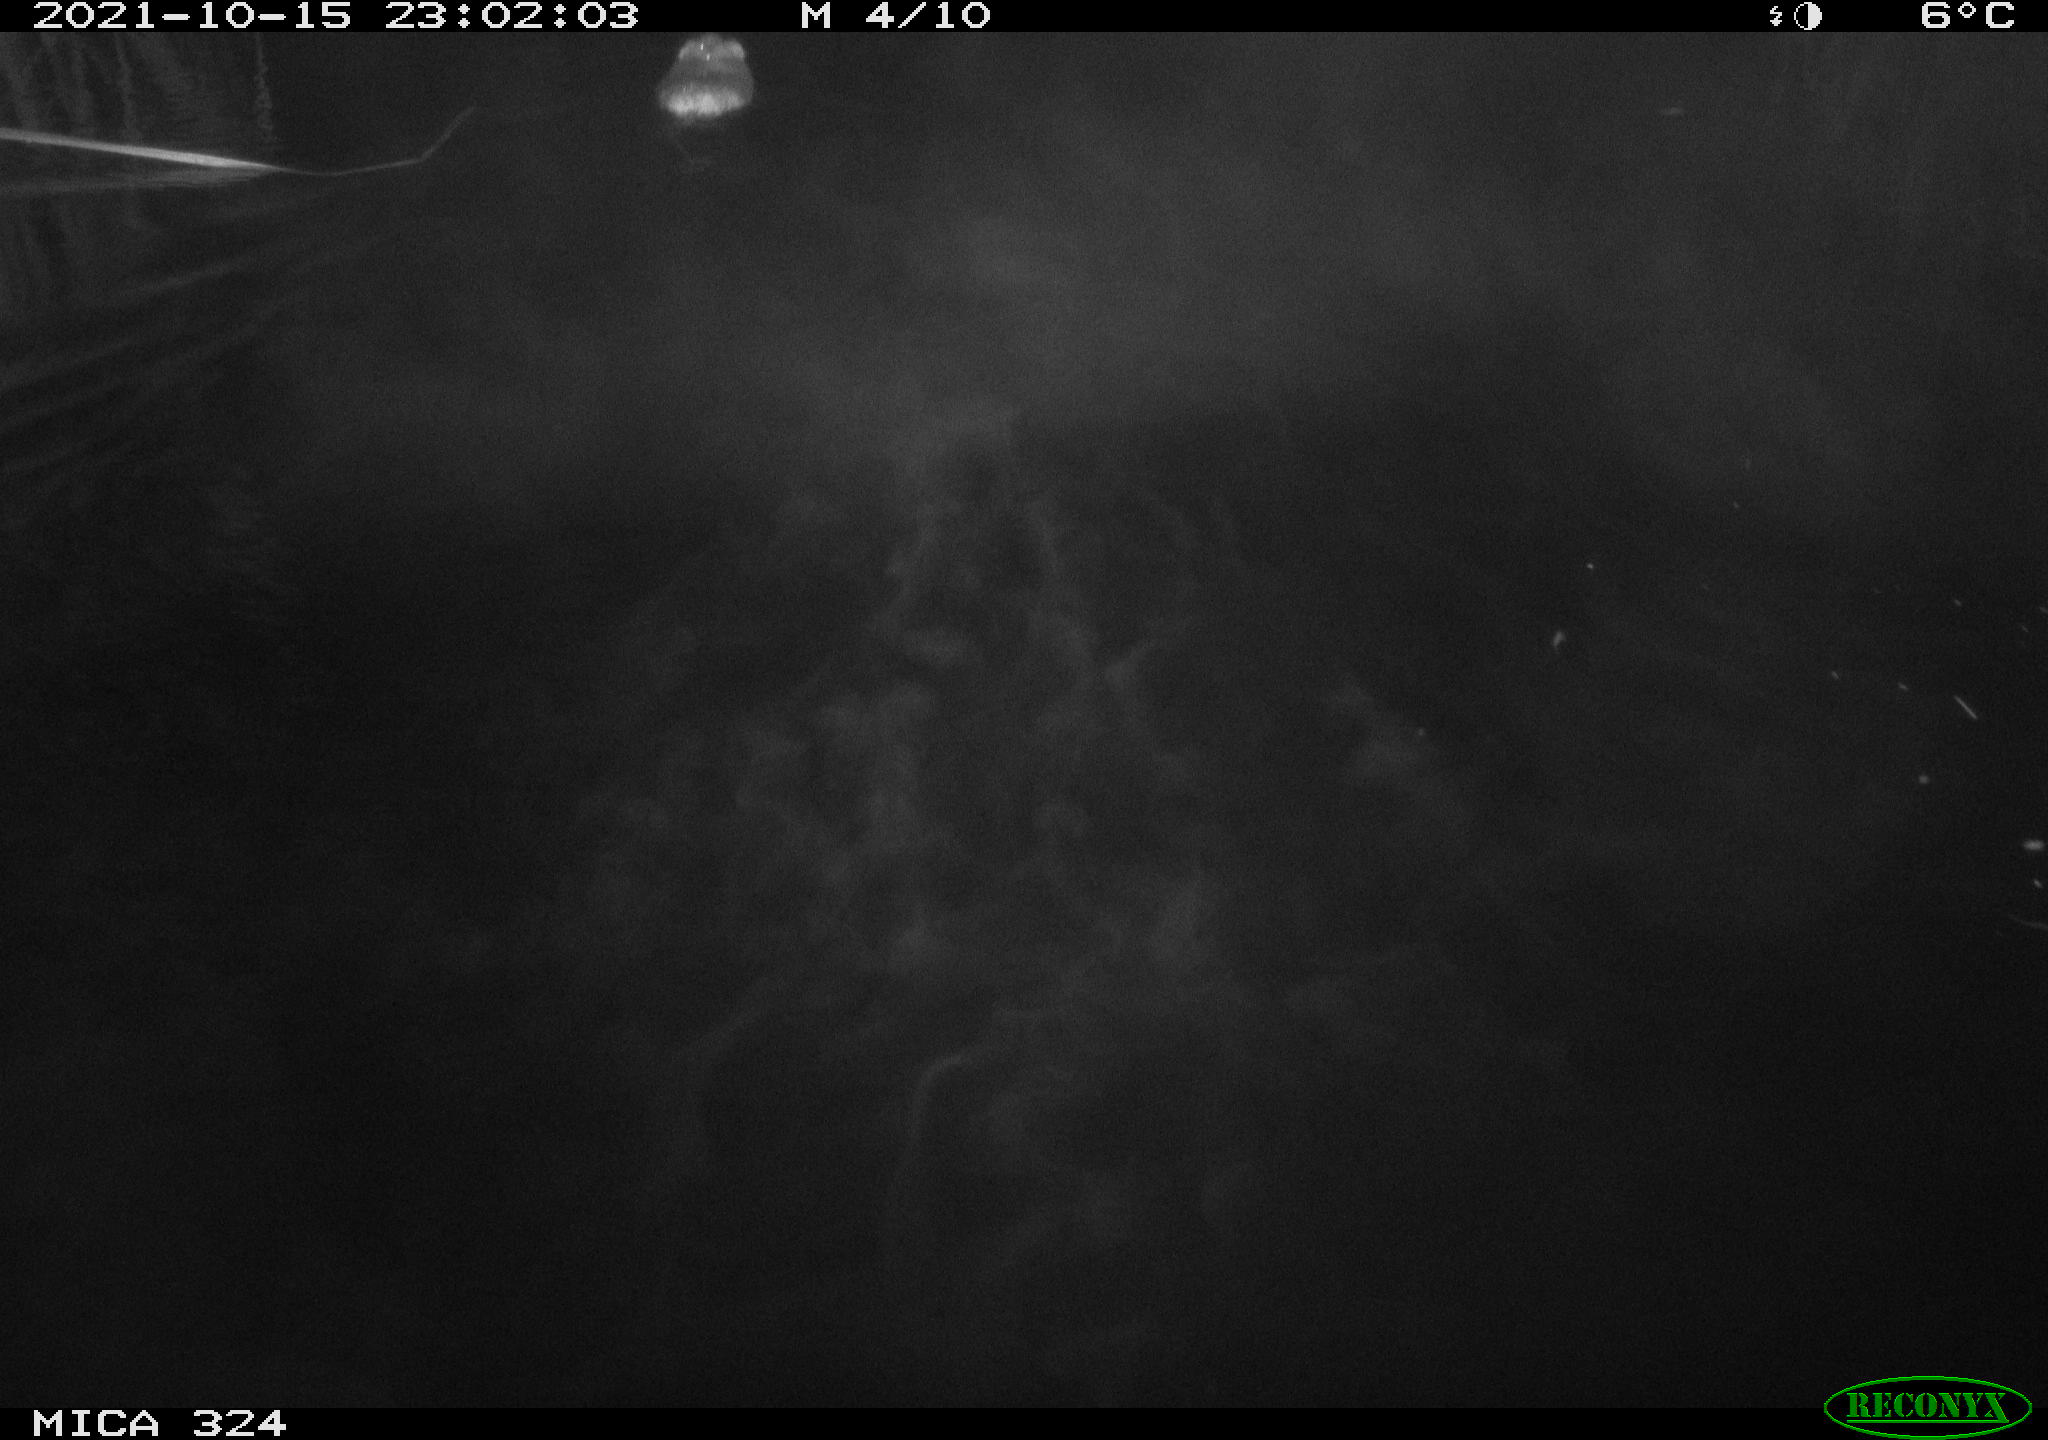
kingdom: Animalia
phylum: Chordata
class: Mammalia
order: Rodentia
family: Cricetidae
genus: Ondatra
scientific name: Ondatra zibethicus
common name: Muskrat
